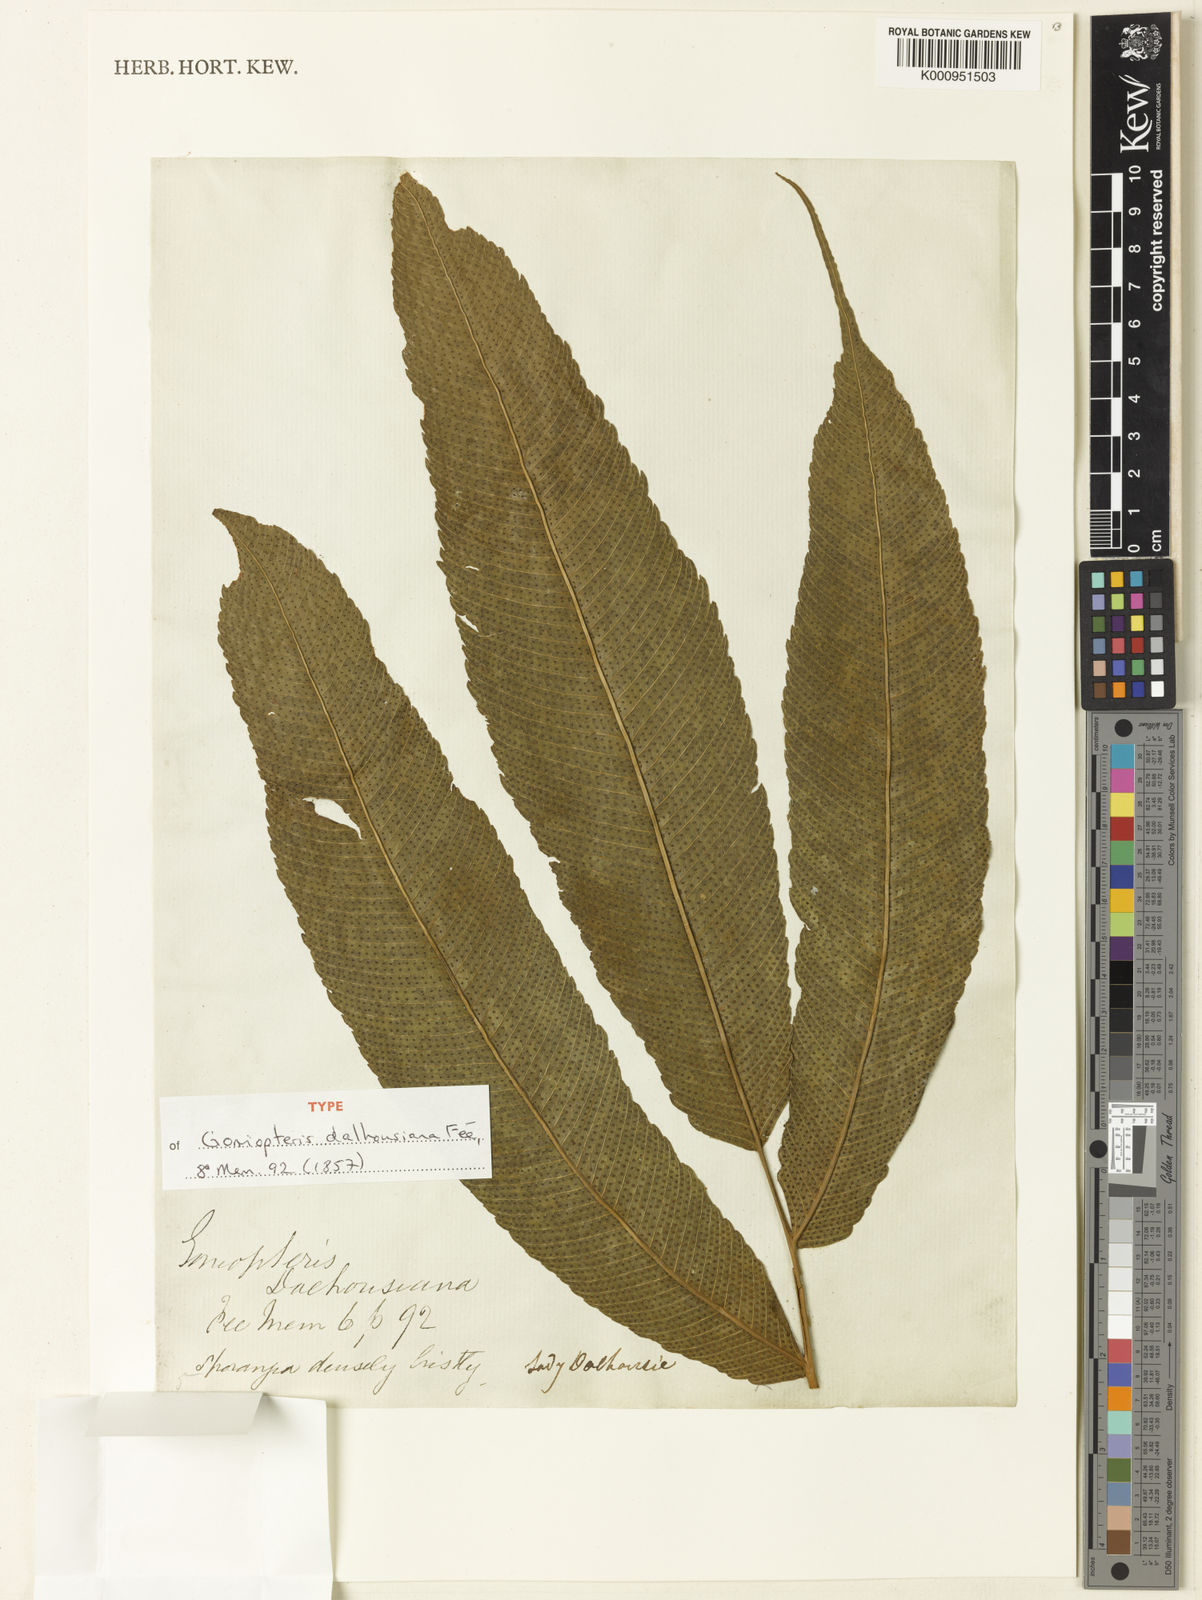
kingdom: Plantae
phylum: Tracheophyta
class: Polypodiopsida
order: Polypodiales
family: Thelypteridaceae
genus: Pronephrium
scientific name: Pronephrium
